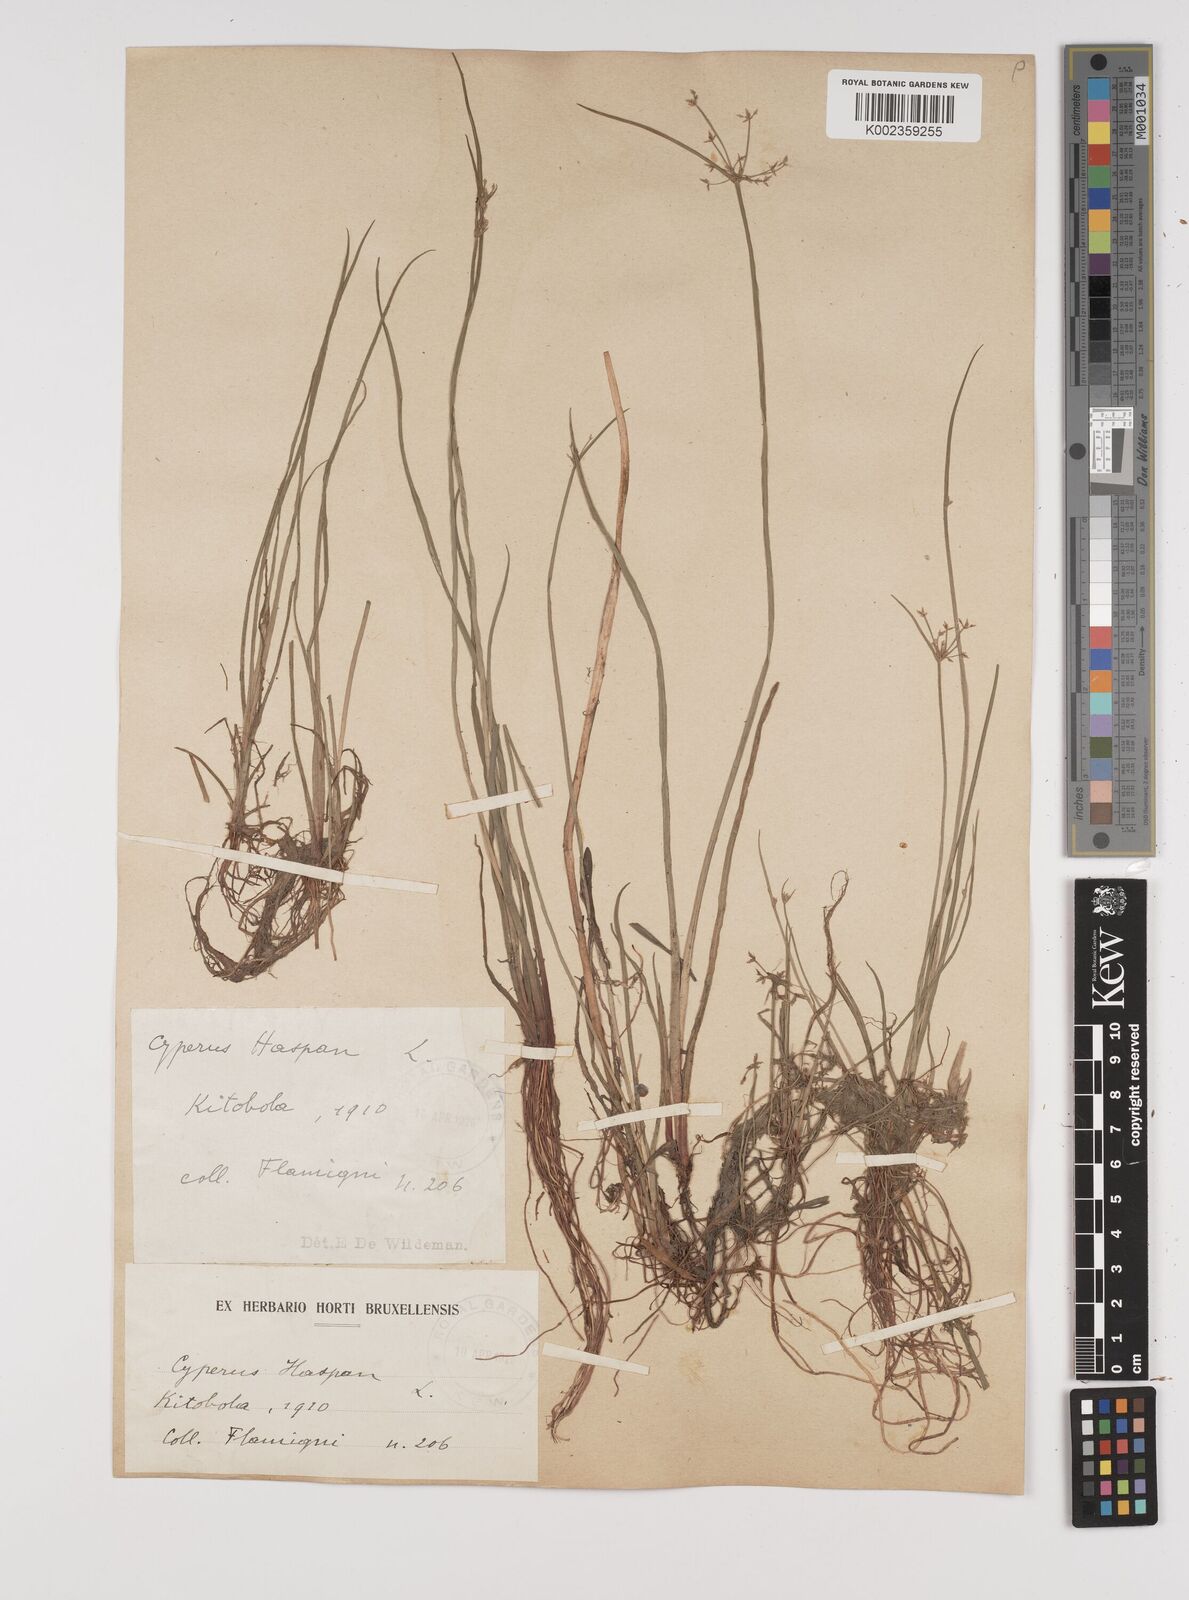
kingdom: Plantae
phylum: Tracheophyta
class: Liliopsida
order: Poales
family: Cyperaceae
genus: Cyperus
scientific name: Cyperus haspan
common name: Haspan flatsedge
